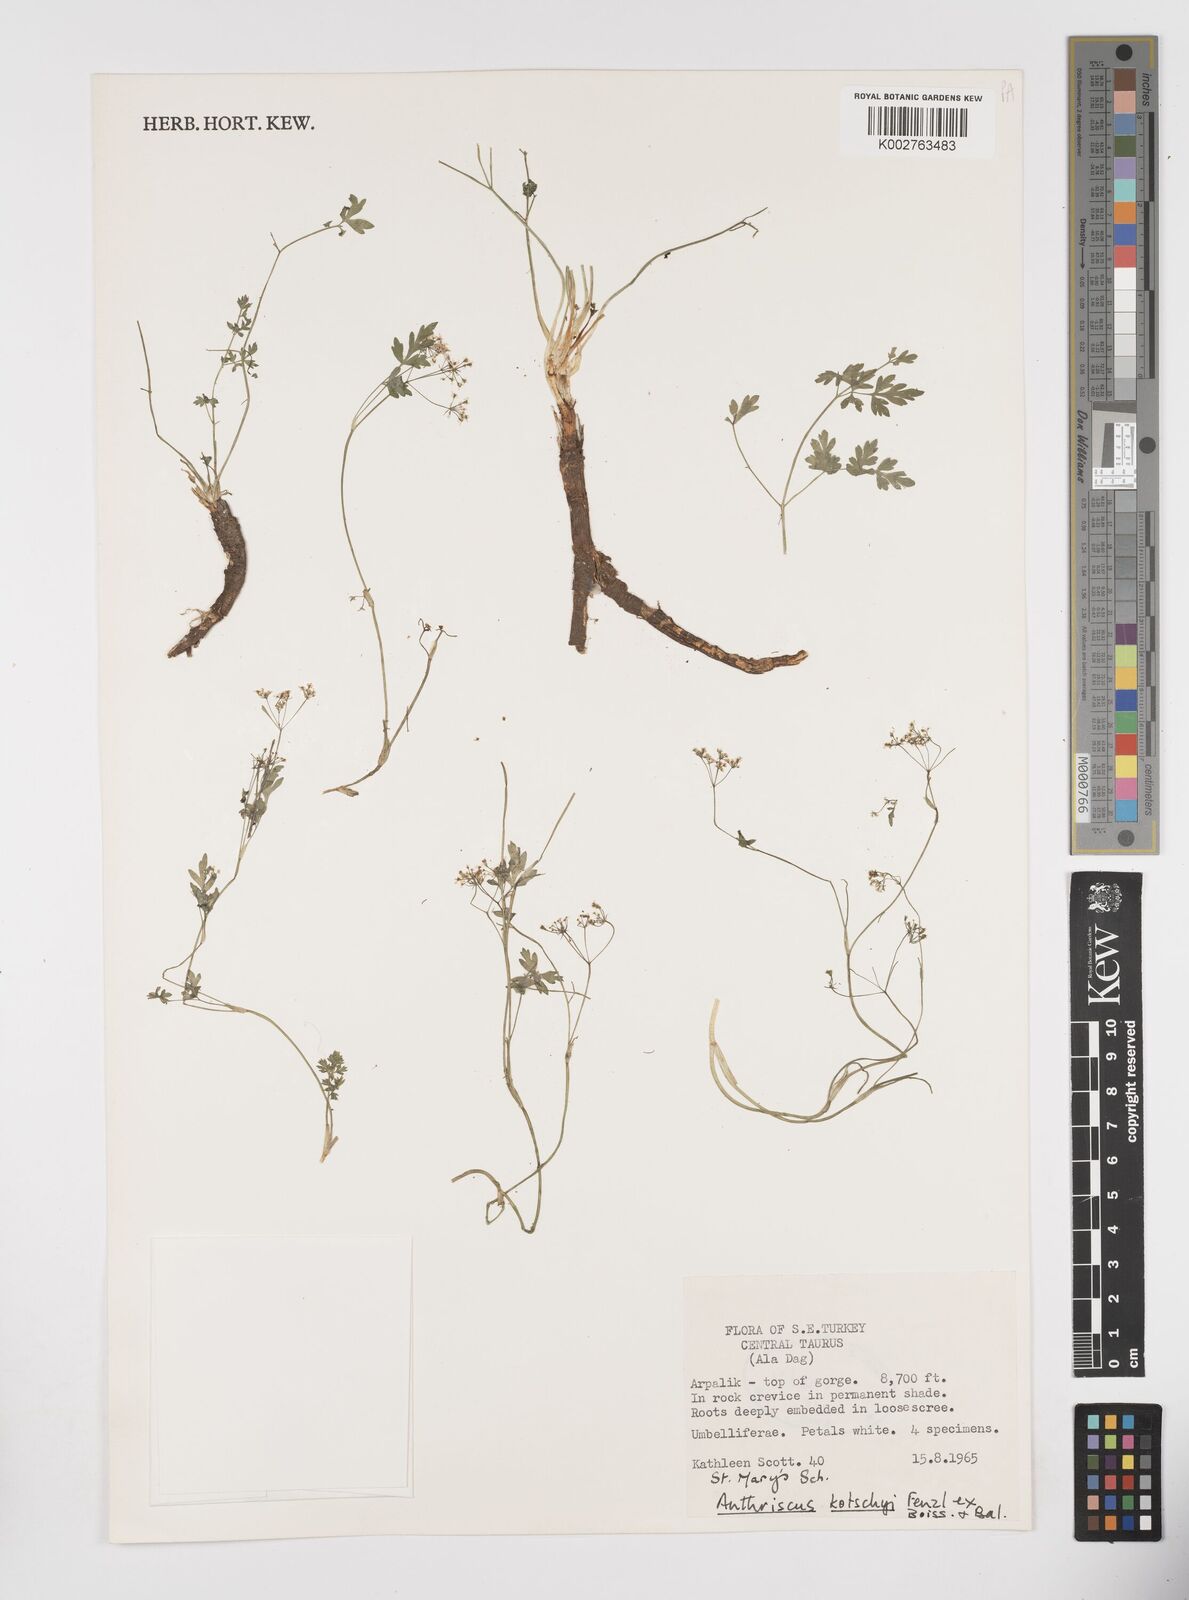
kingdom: Plantae
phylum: Tracheophyta
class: Magnoliopsida
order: Apiales
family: Apiaceae
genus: Anthriscus
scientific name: Anthriscus kotschyi
